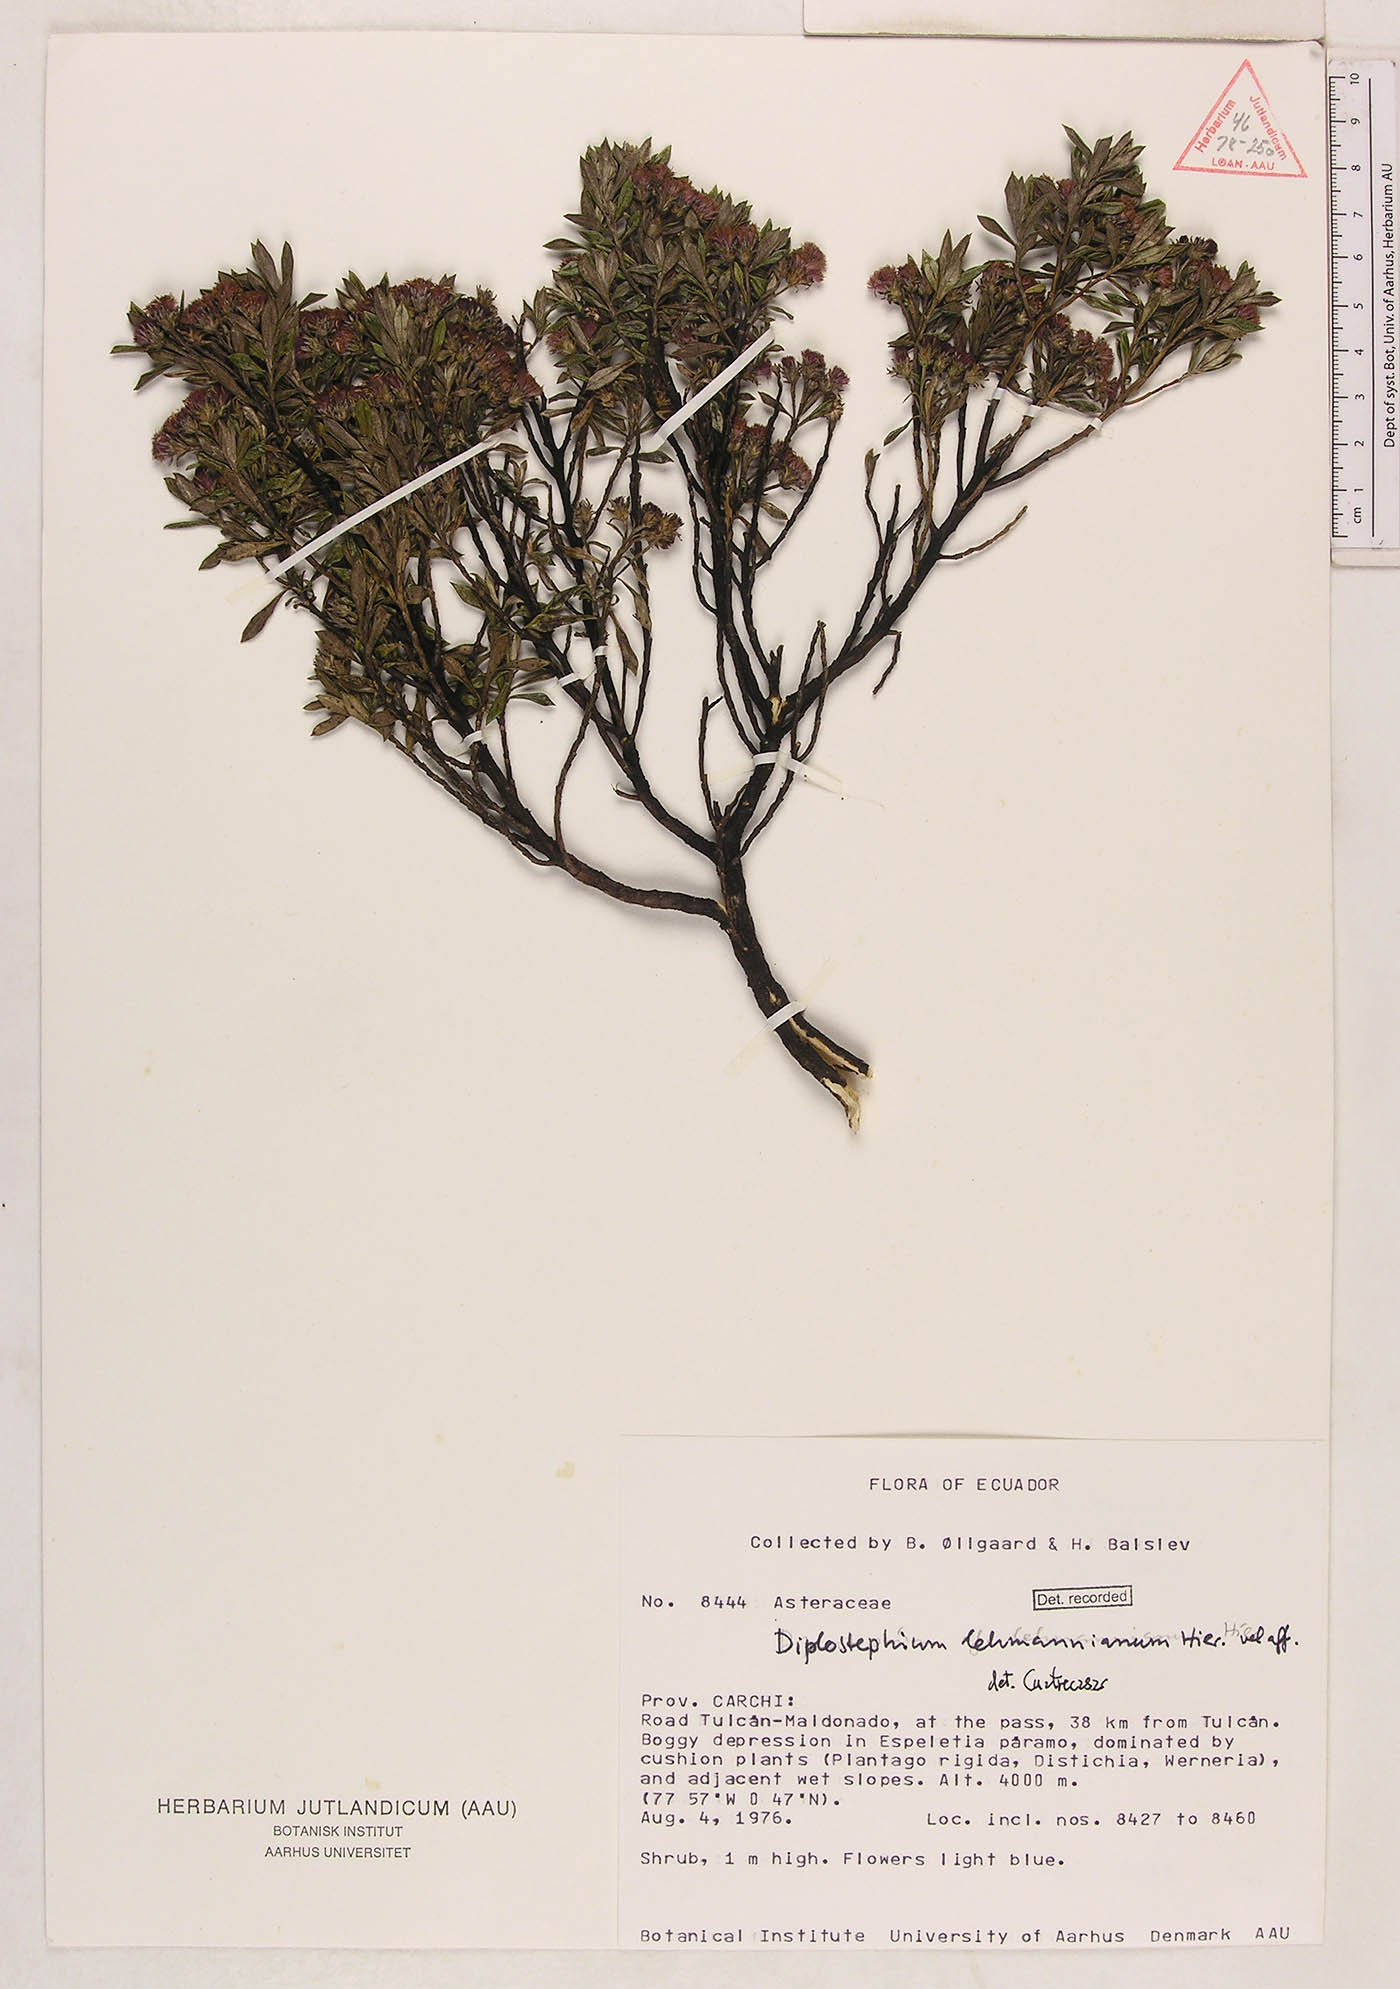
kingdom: Plantae
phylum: Tracheophyta
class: Magnoliopsida
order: Asterales
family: Asteraceae
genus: Linochilus
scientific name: Linochilus schultzii
